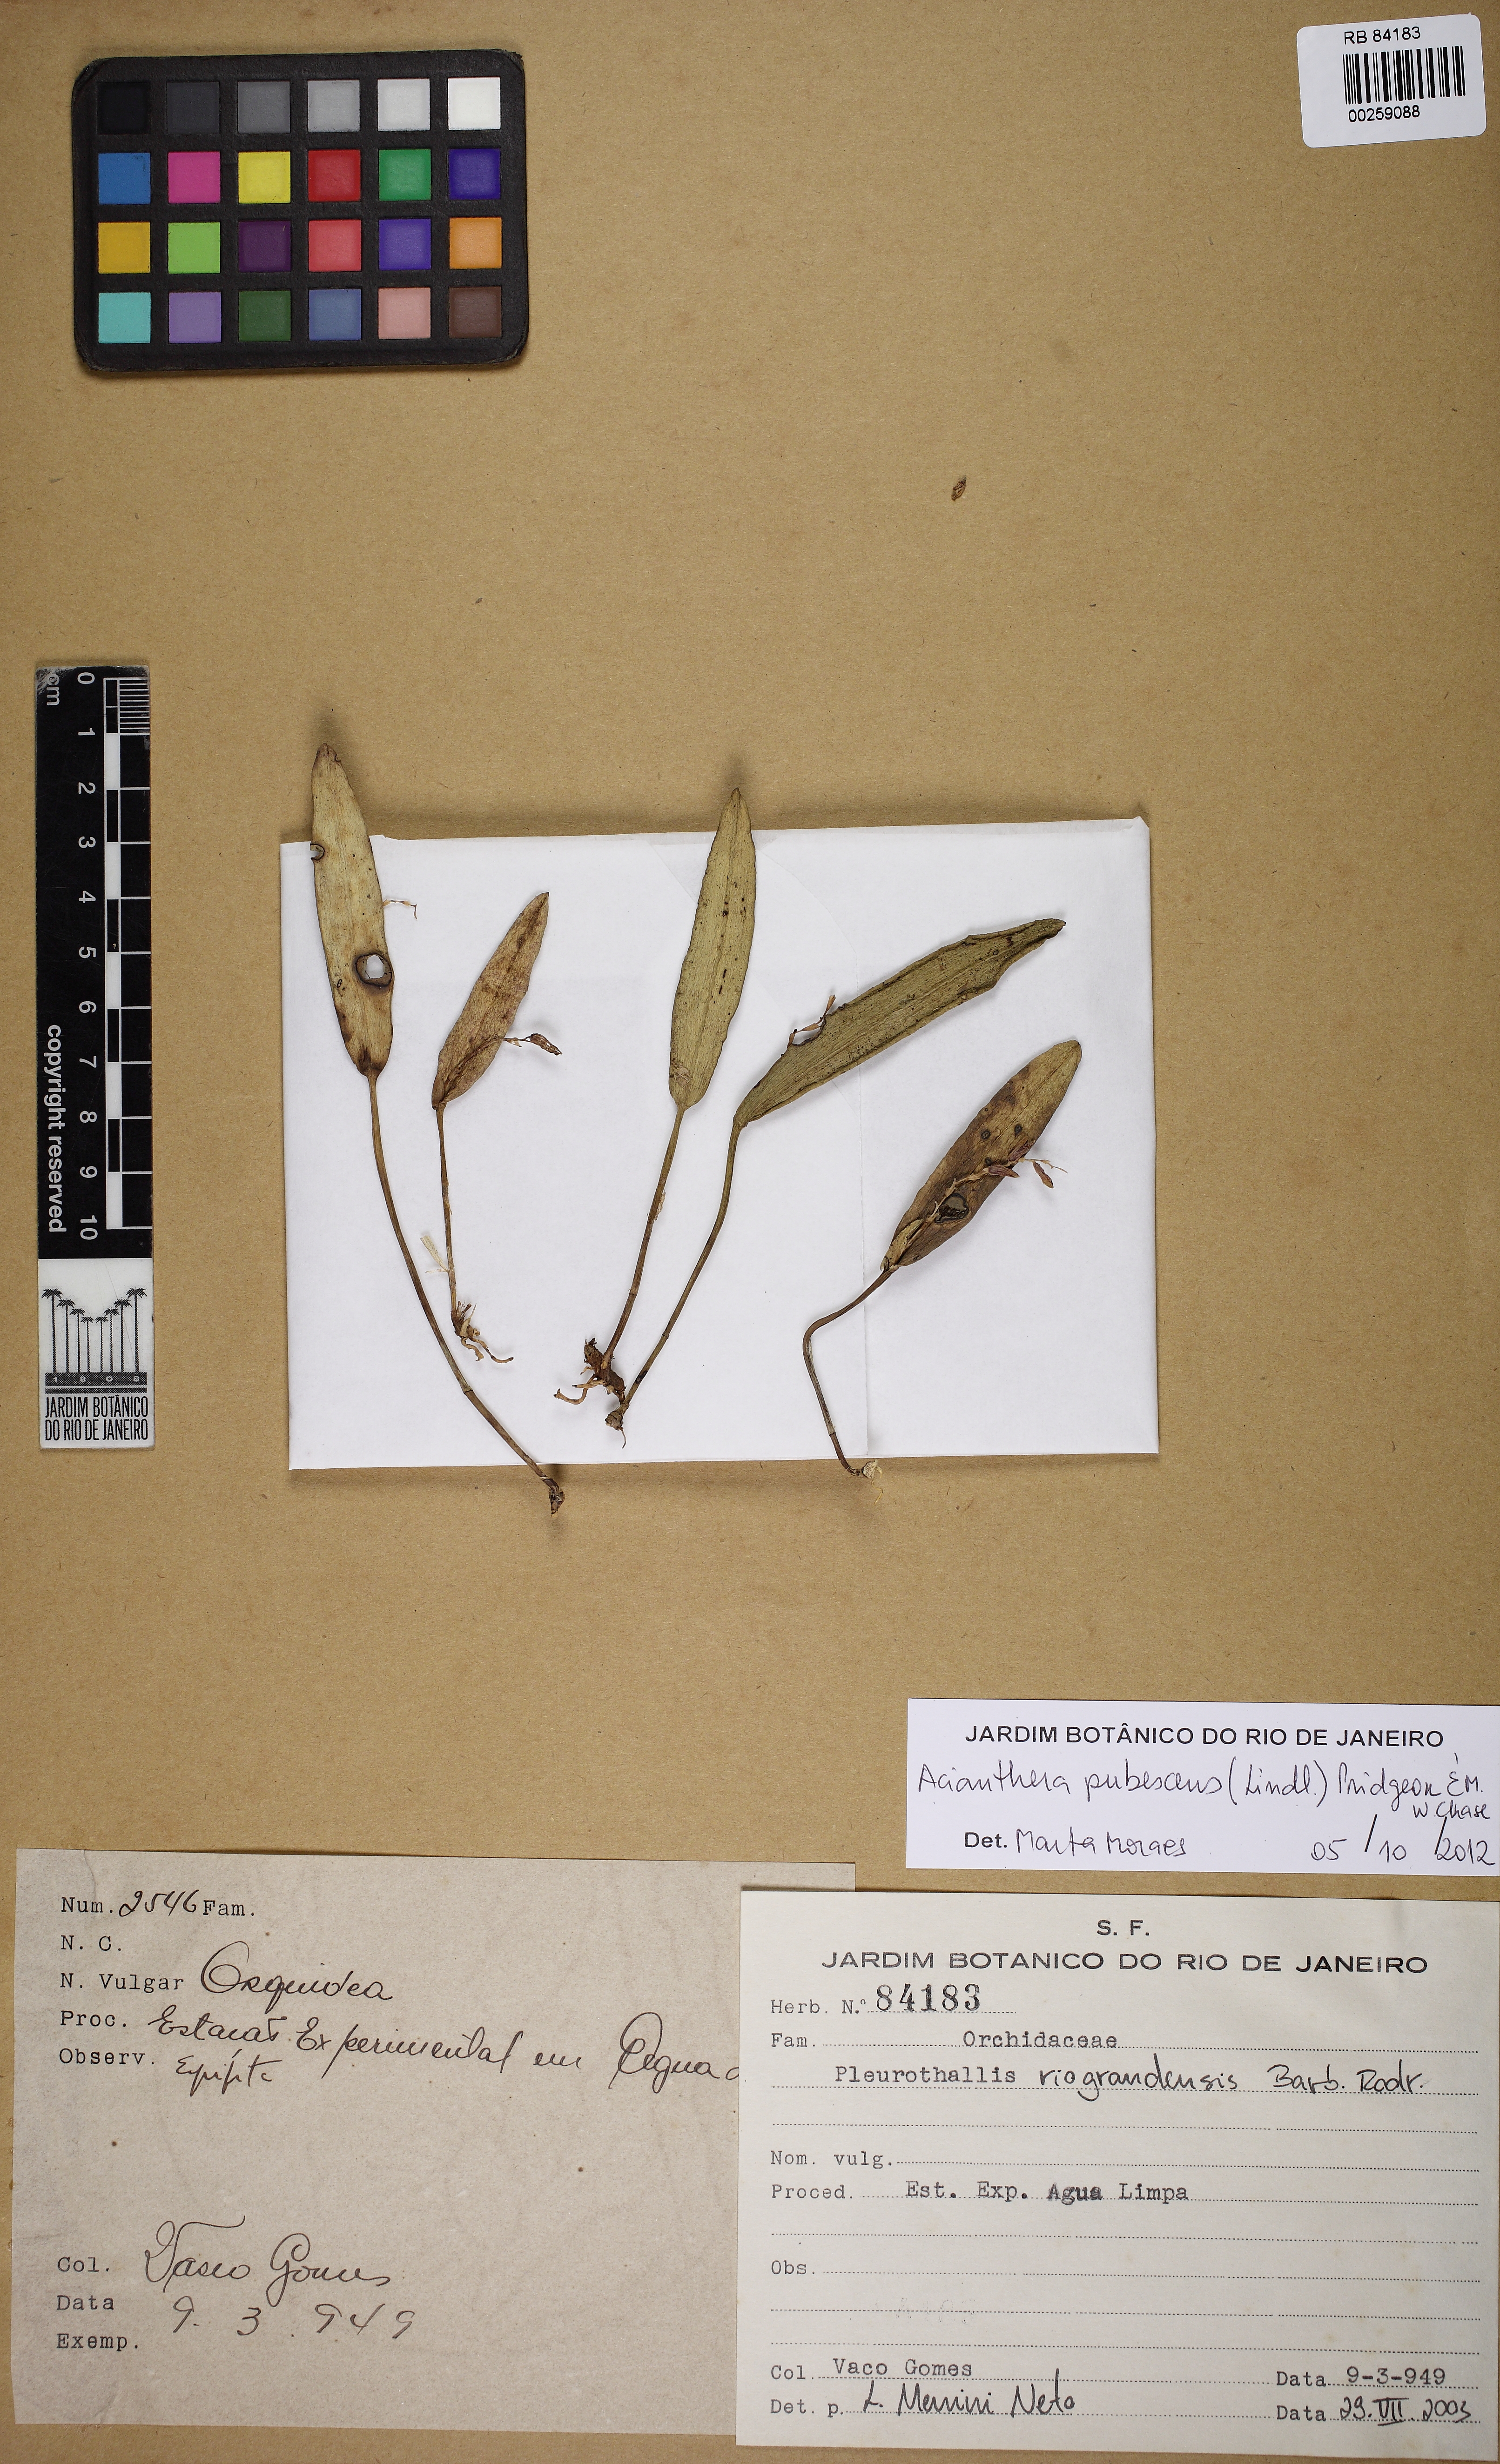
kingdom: Plantae
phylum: Tracheophyta
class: Liliopsida
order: Asparagales
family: Orchidaceae
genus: Acianthera
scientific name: Acianthera pubescens
